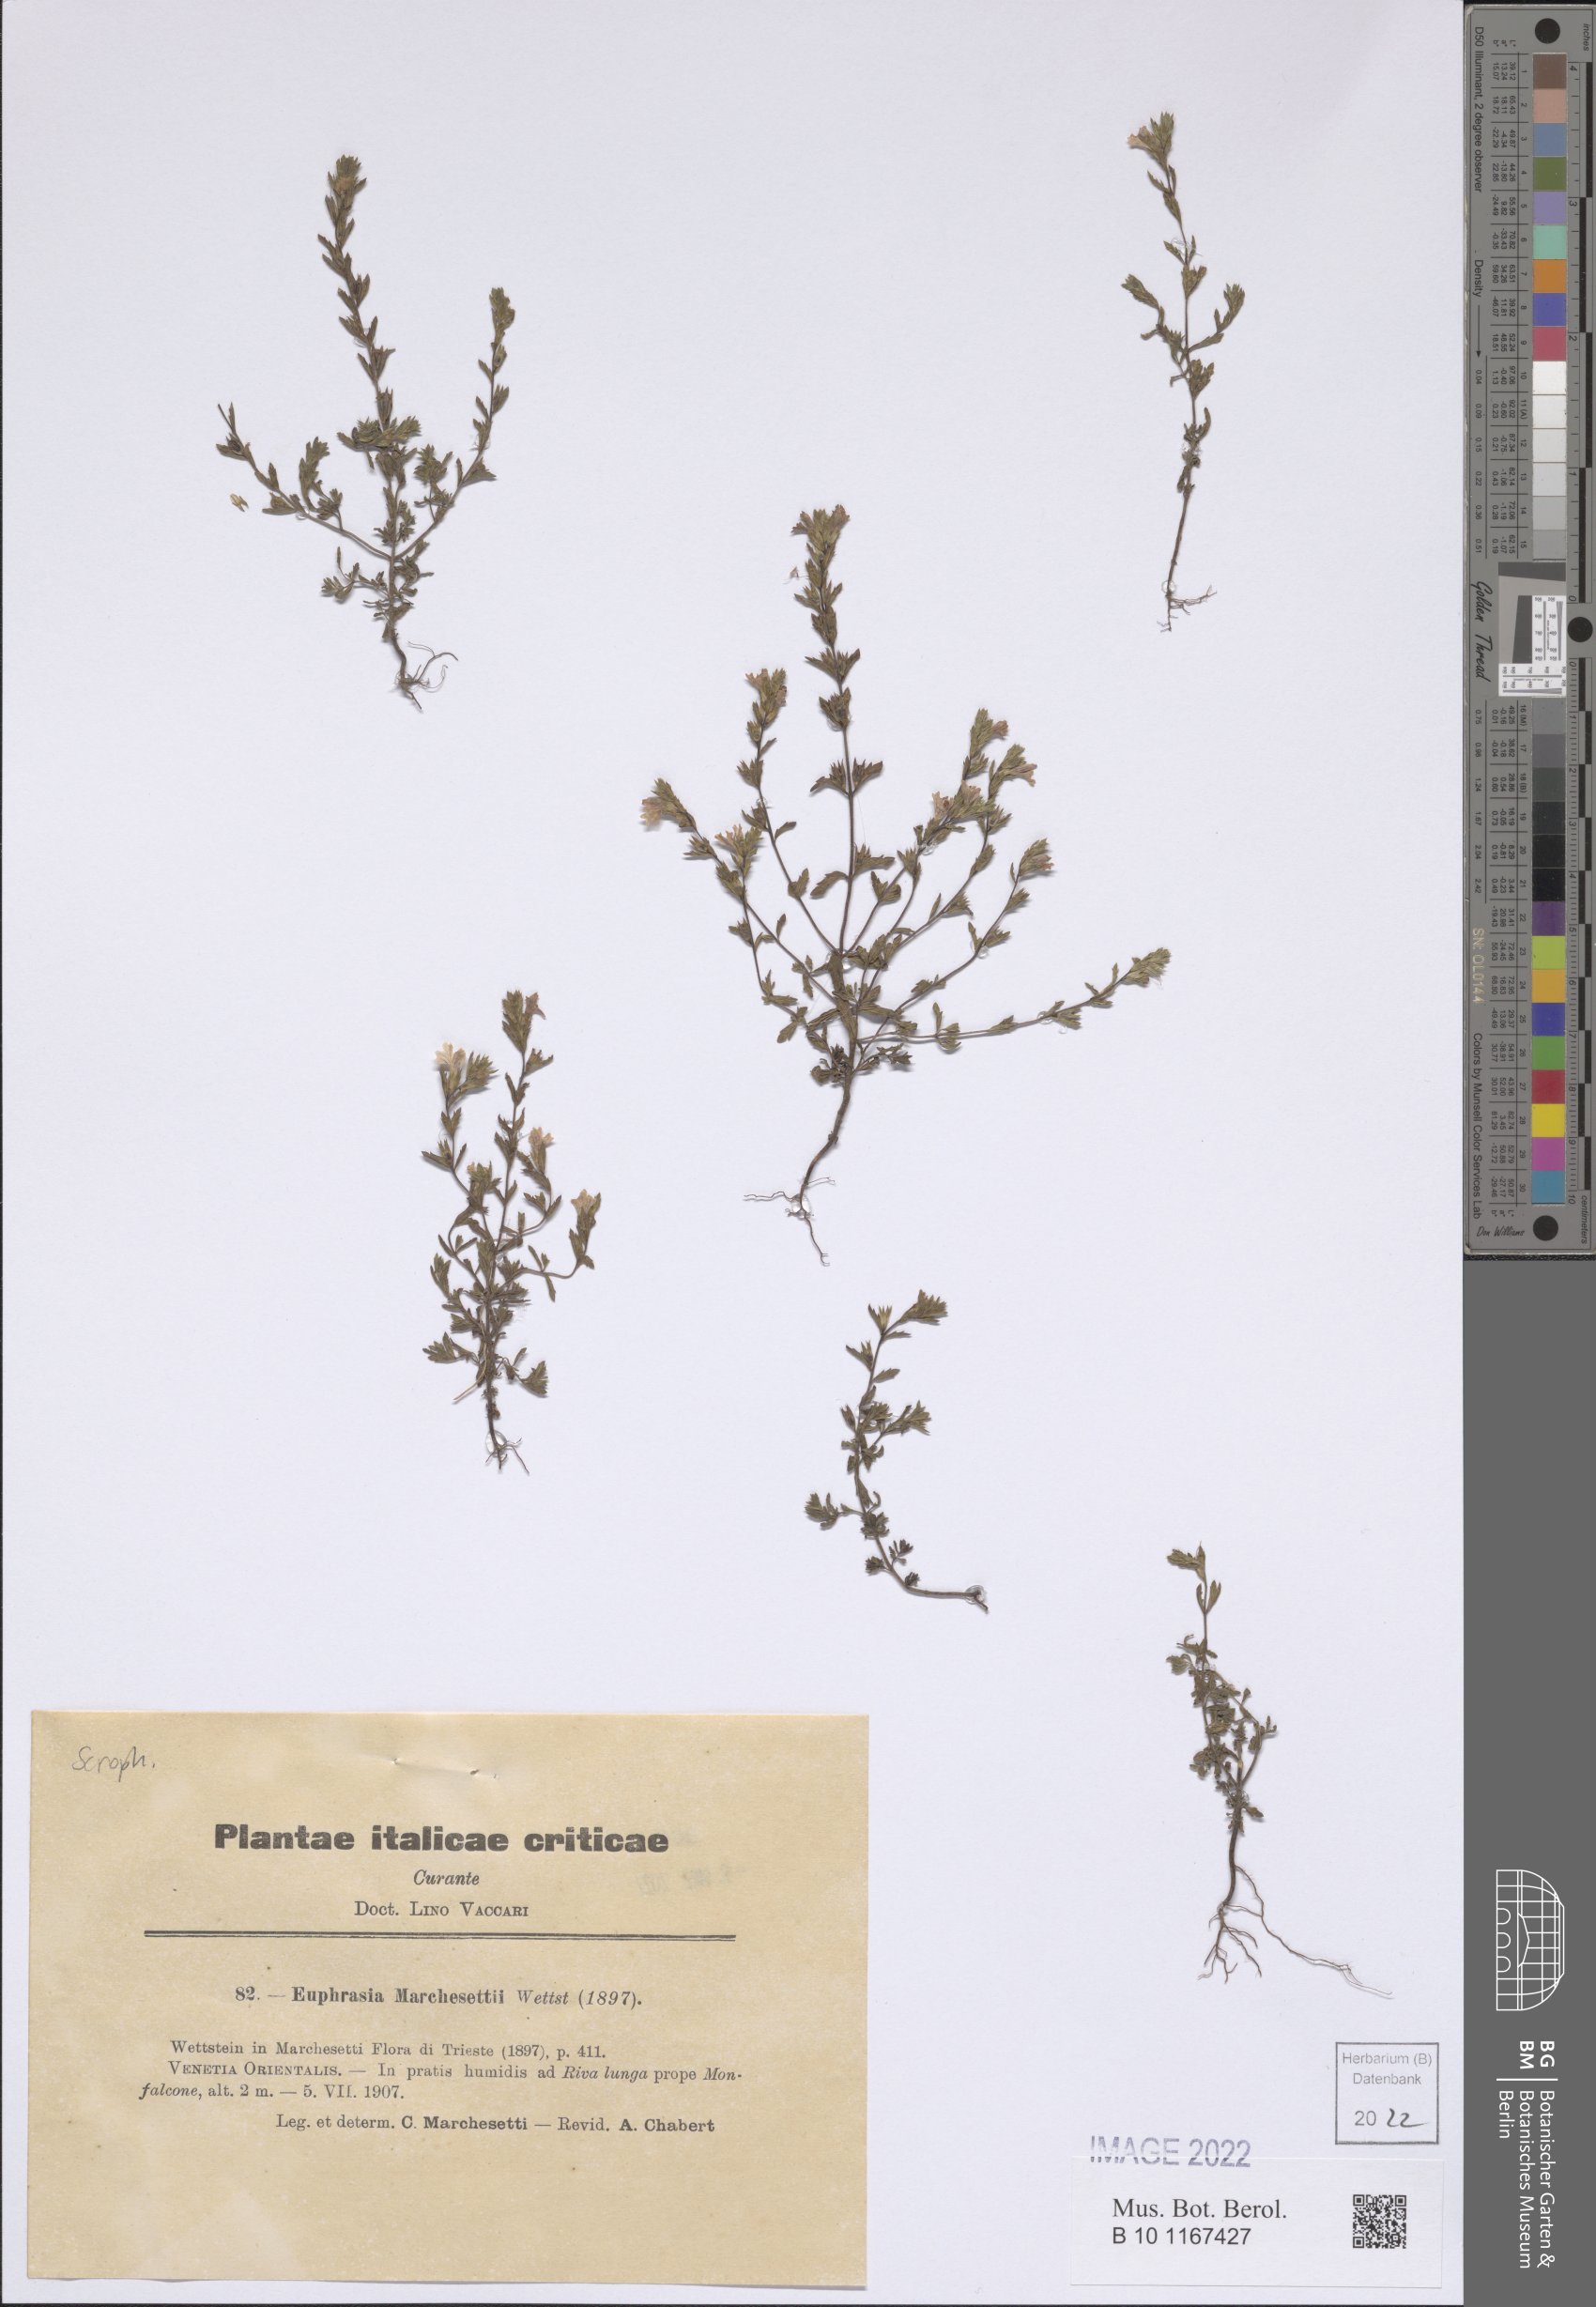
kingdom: Plantae
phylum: Tracheophyta
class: Magnoliopsida
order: Lamiales
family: Orobanchaceae
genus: Euphrasia
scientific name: Euphrasia marchesettii
